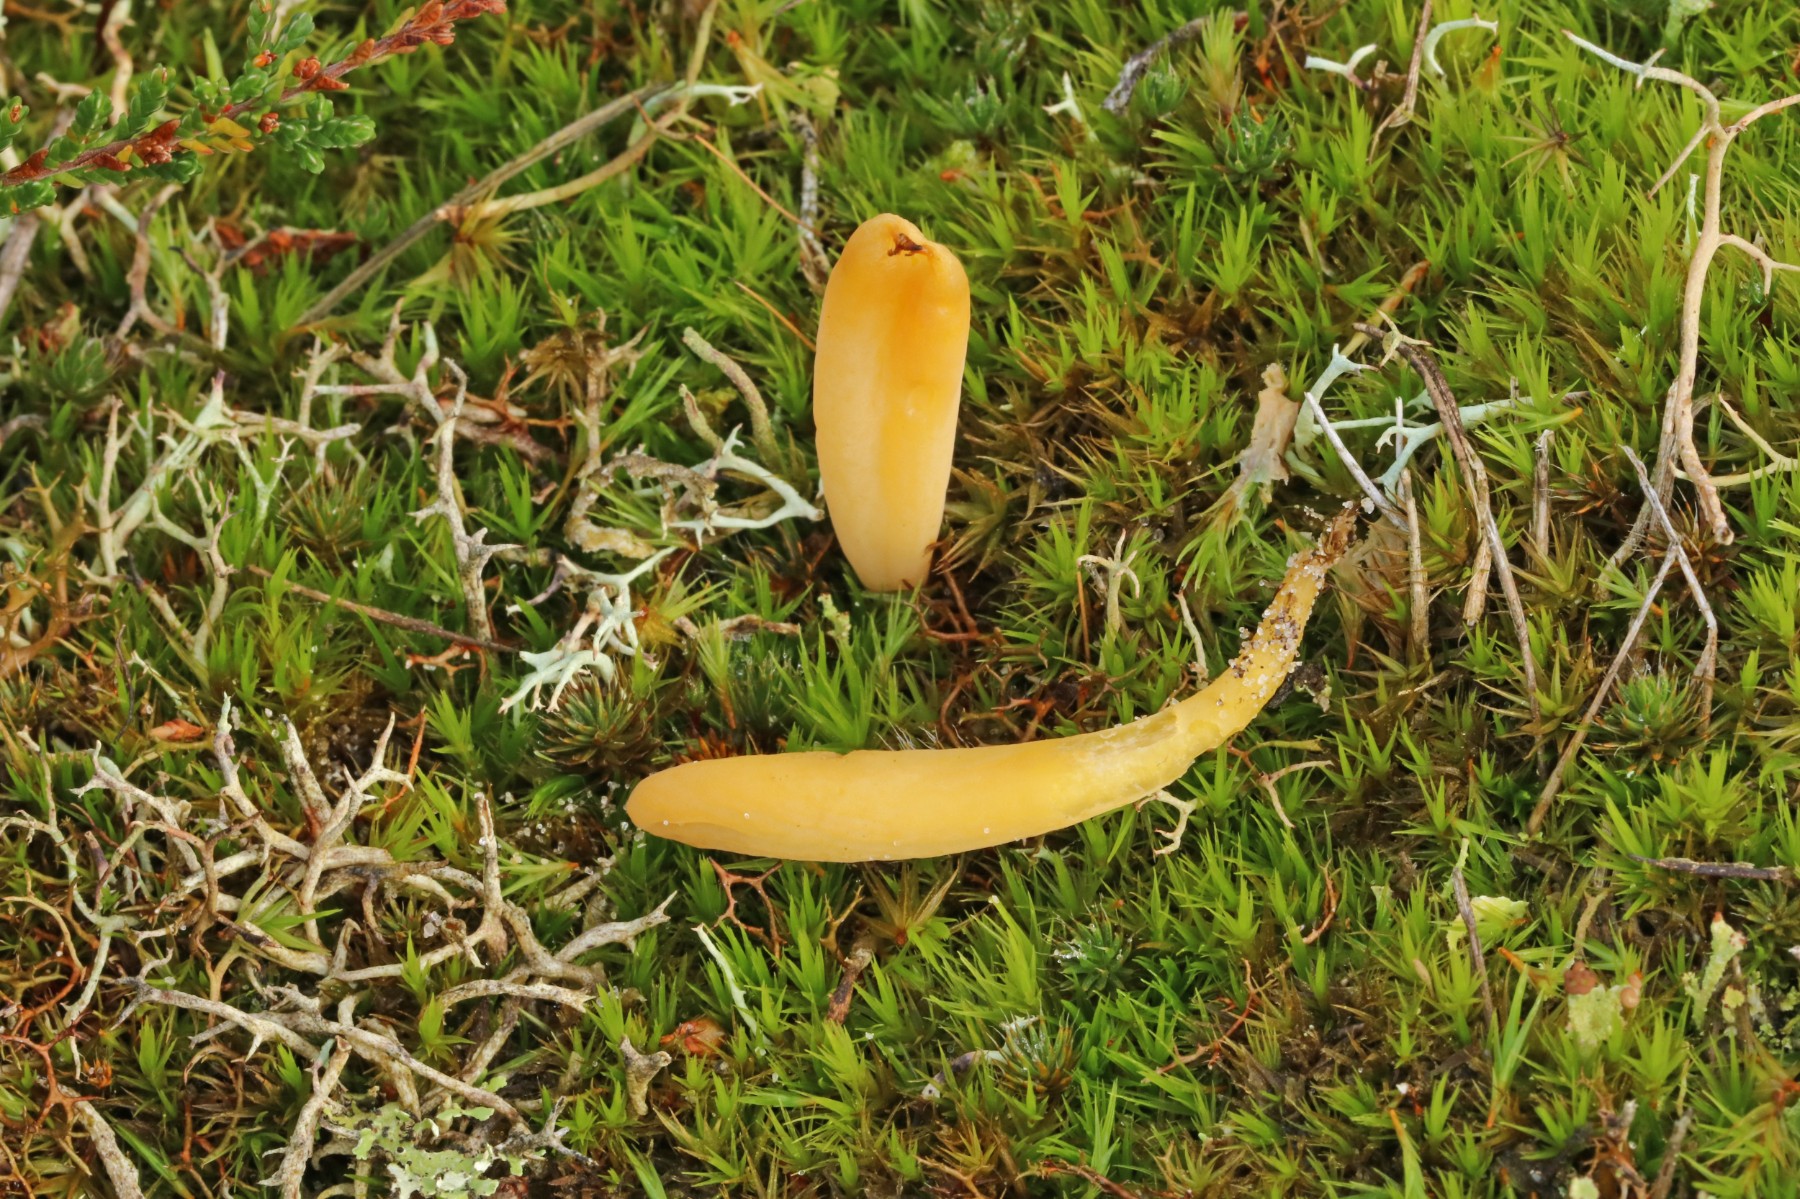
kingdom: Fungi
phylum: Basidiomycota
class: Agaricomycetes
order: Agaricales
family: Clavariaceae
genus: Clavaria
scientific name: Clavaria argillacea
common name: lerfarvet køllesvamp
